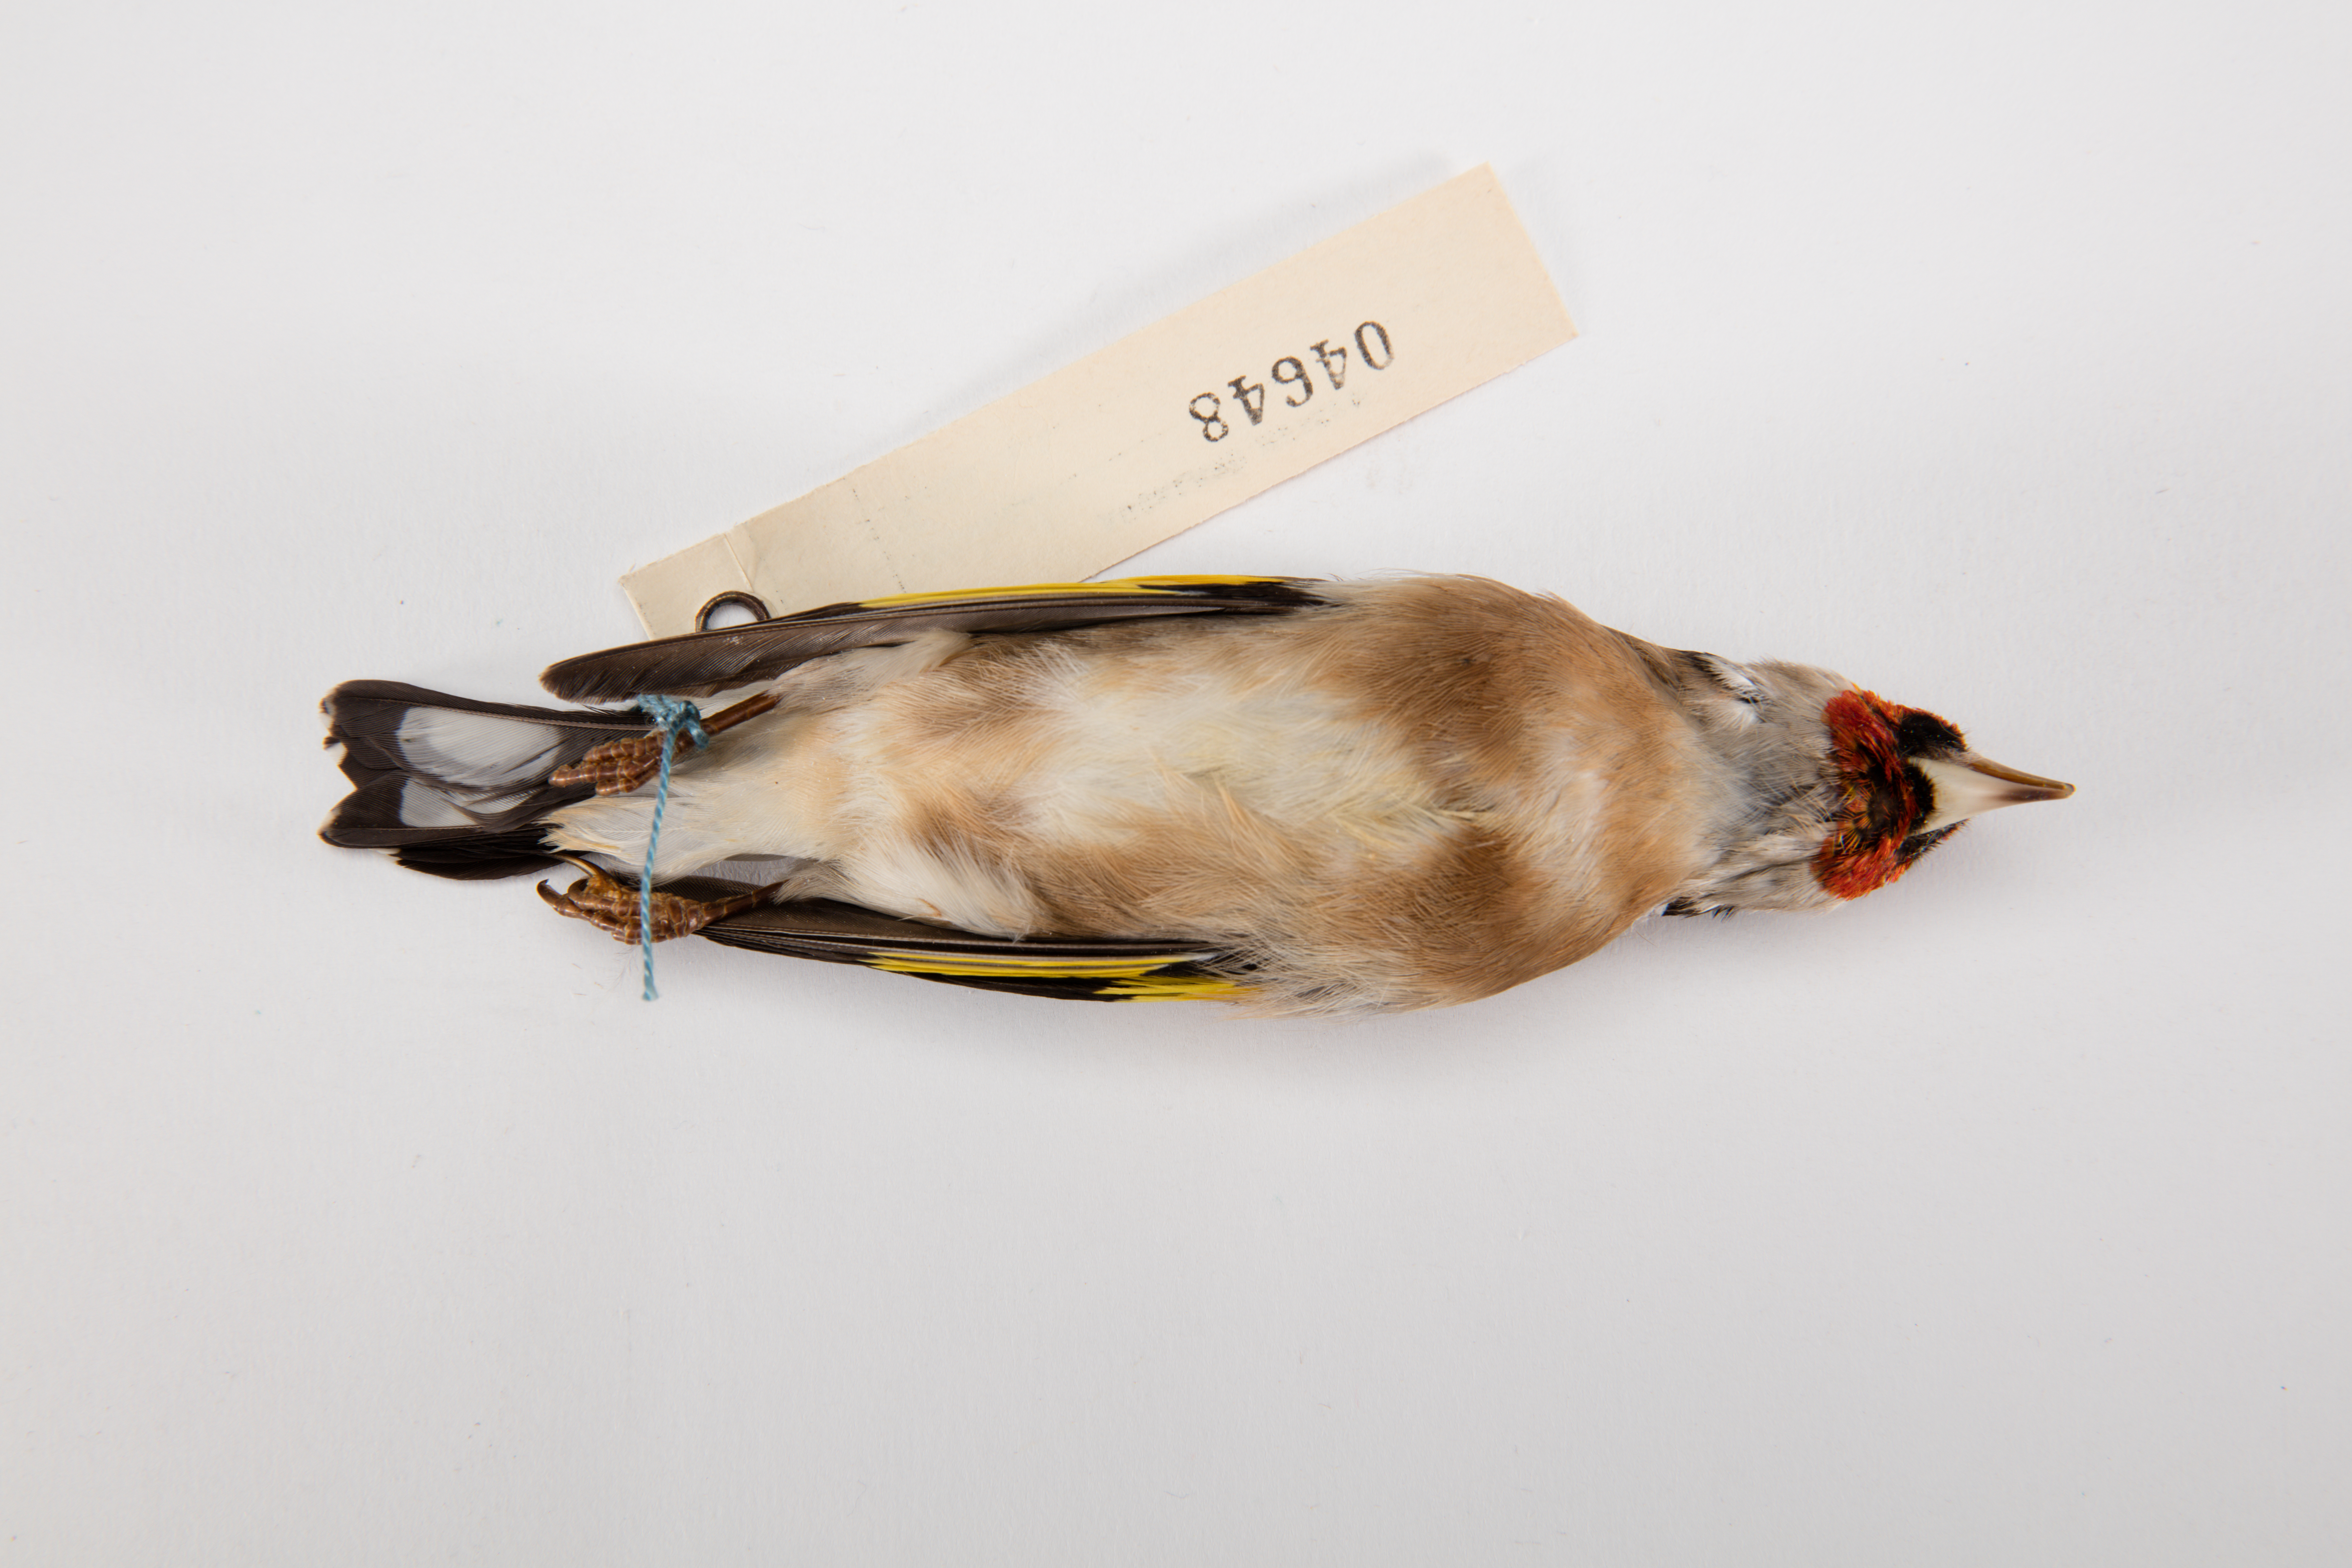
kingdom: Animalia
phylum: Chordata
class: Aves
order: Passeriformes
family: Fringillidae
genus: Carduelis
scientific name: Carduelis carduelis
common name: European goldfinch
